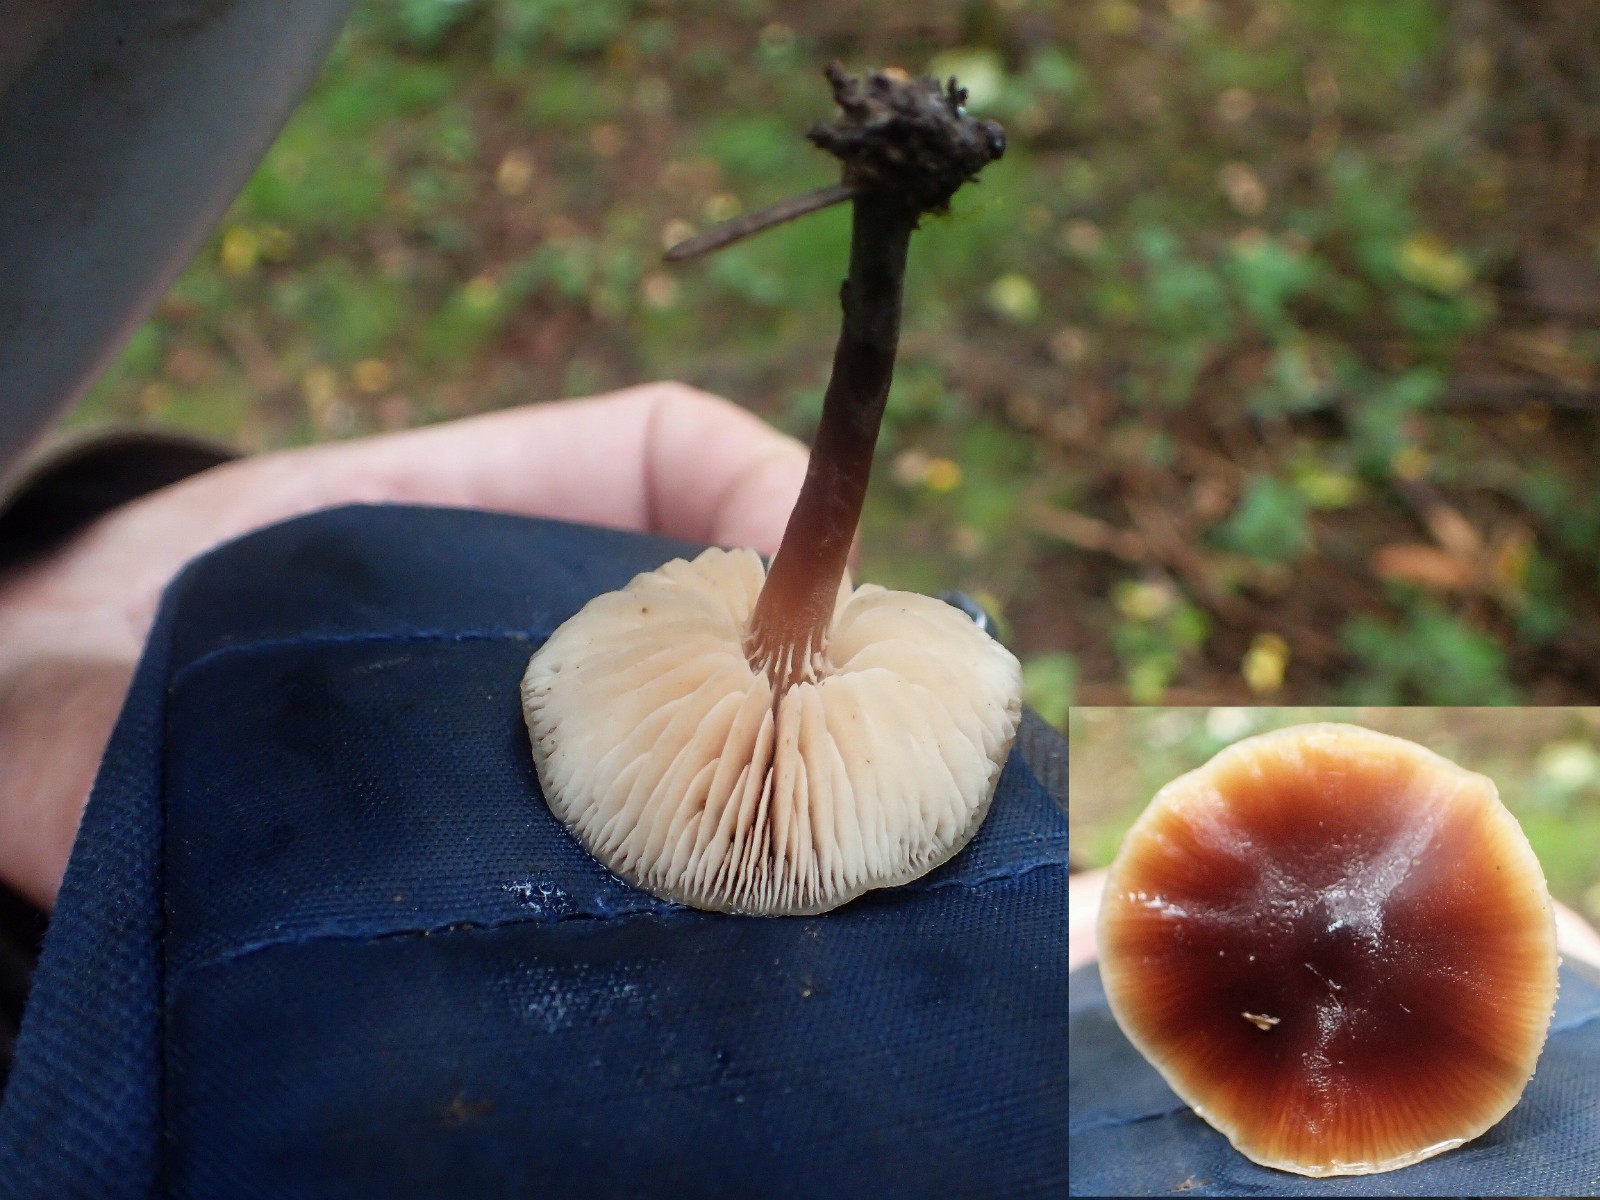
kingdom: Fungi
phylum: Basidiomycota
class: Agaricomycetes
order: Agaricales
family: Macrocystidiaceae
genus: Macrocystidia
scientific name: Macrocystidia cucumis
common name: agurkehat
